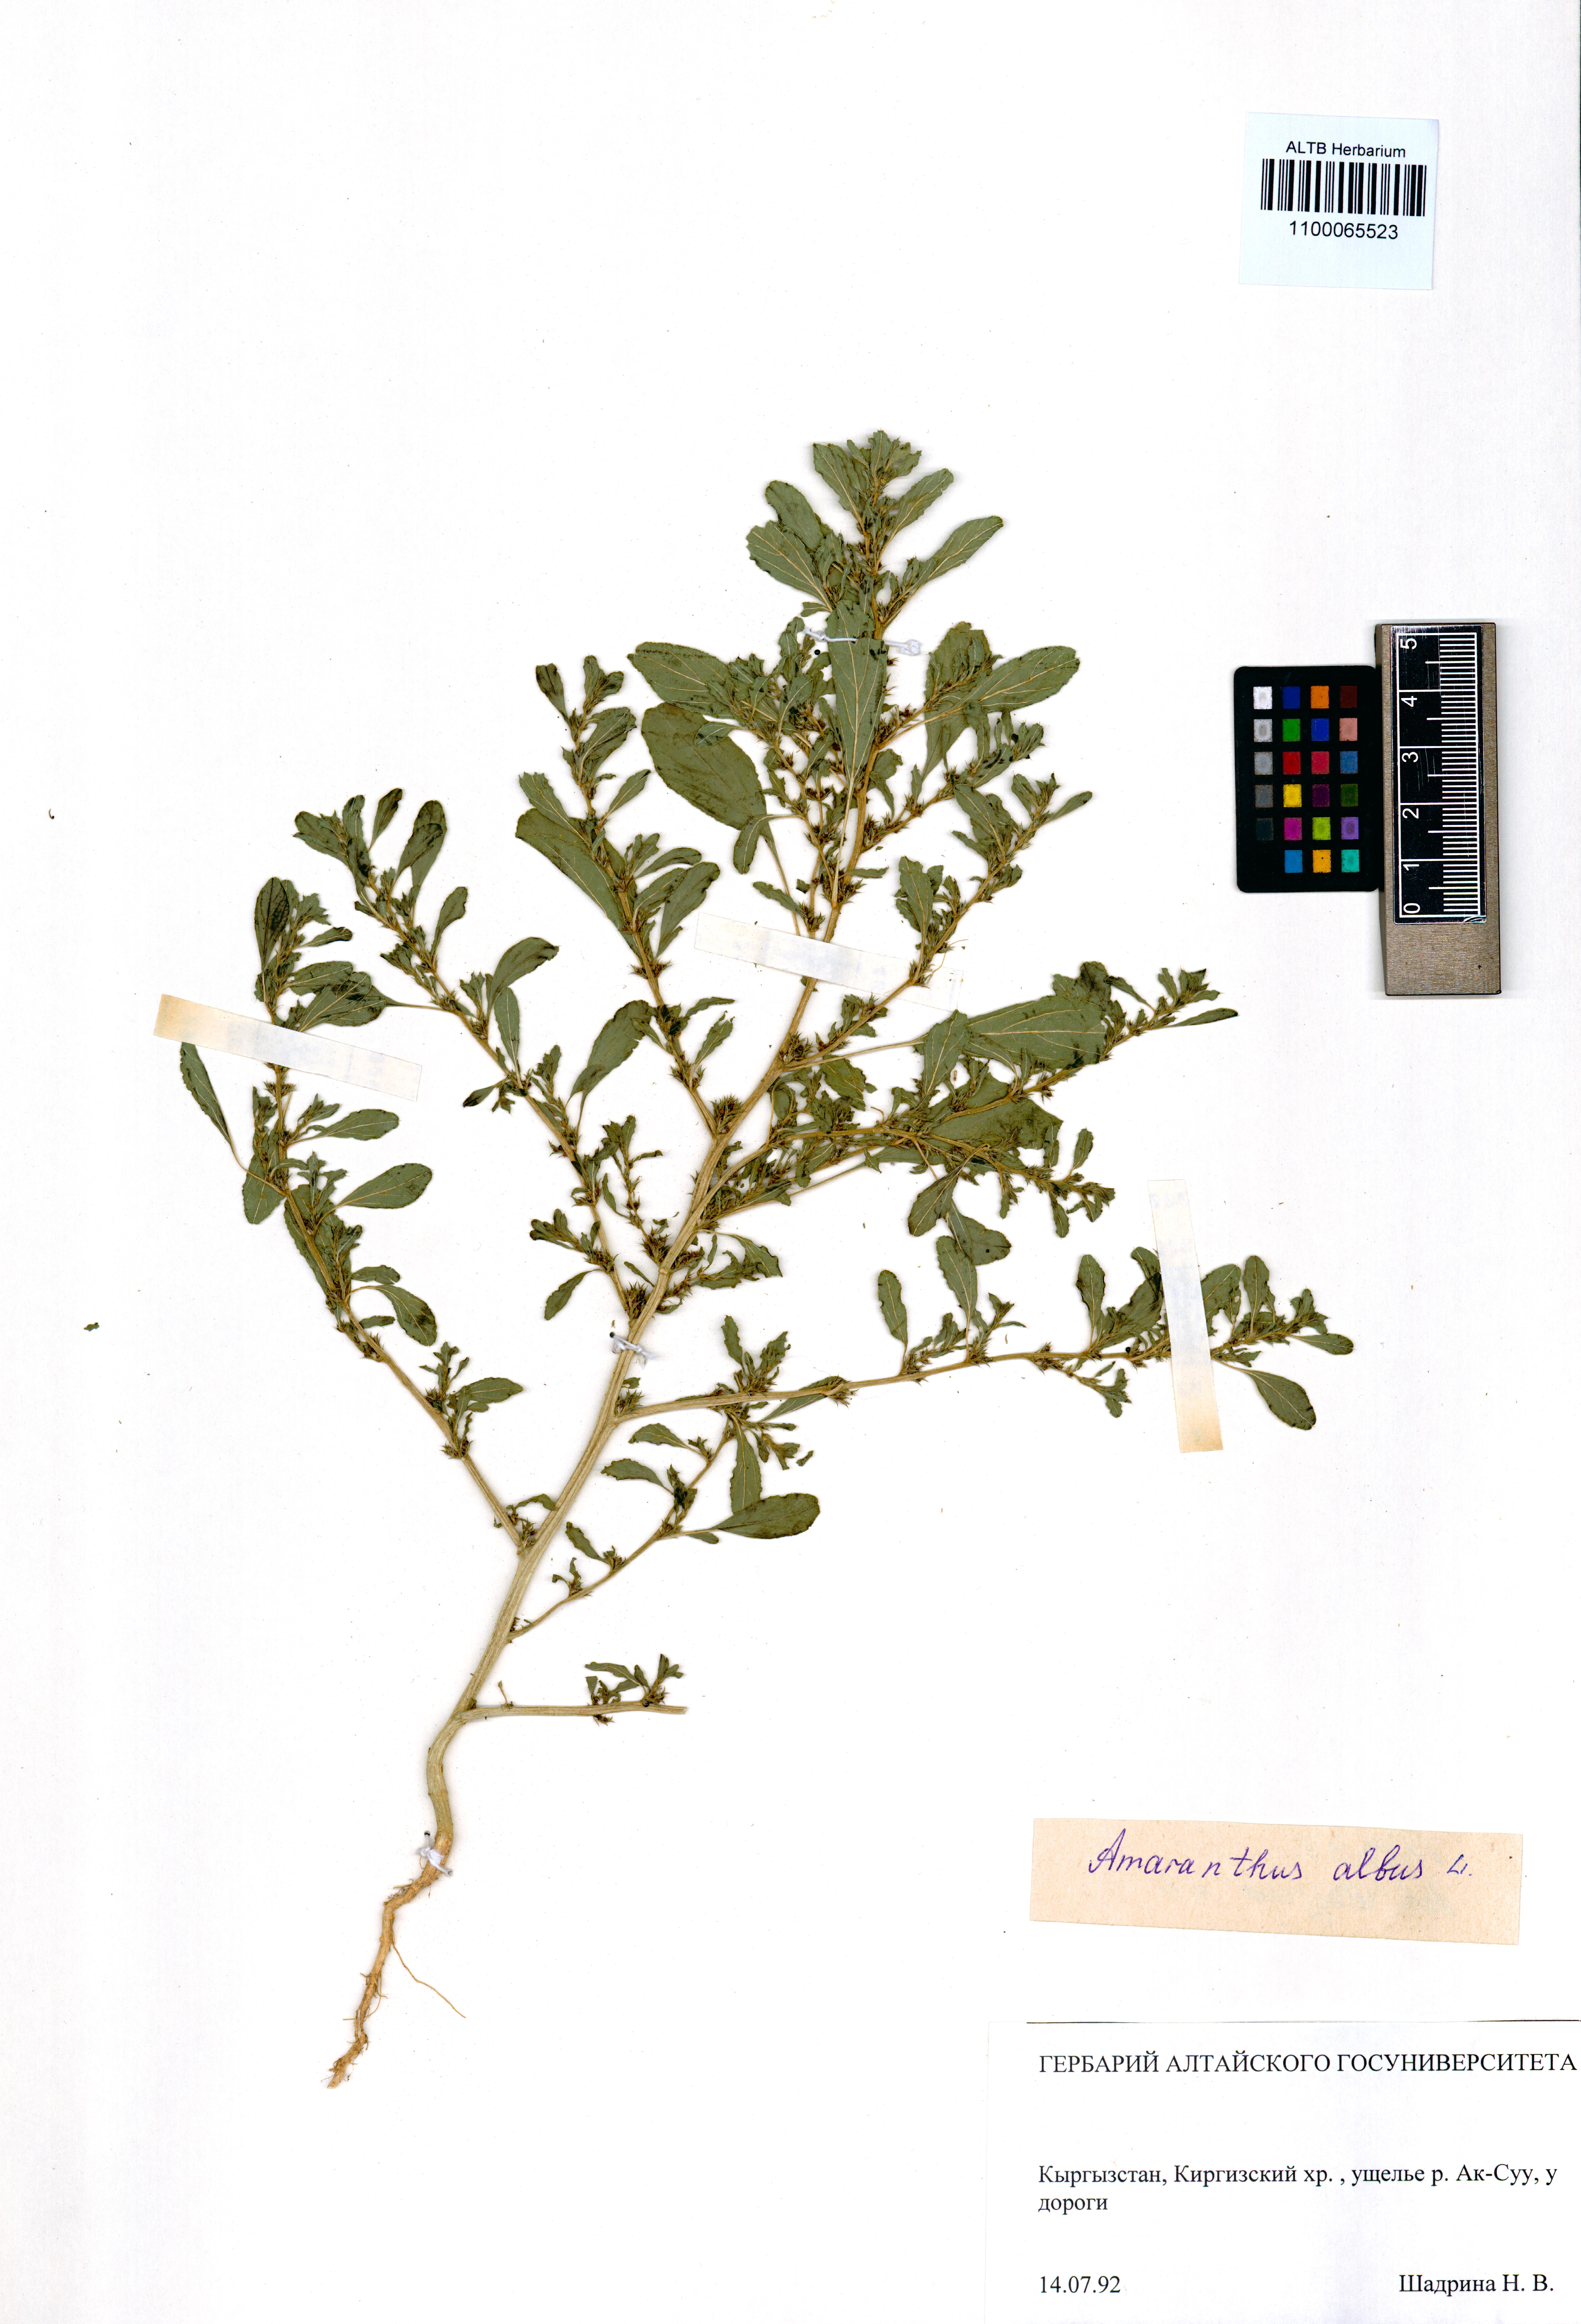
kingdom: Plantae
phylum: Tracheophyta
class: Magnoliopsida
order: Caryophyllales
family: Amaranthaceae
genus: Amaranthus
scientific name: Amaranthus albus
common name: White pigweed
